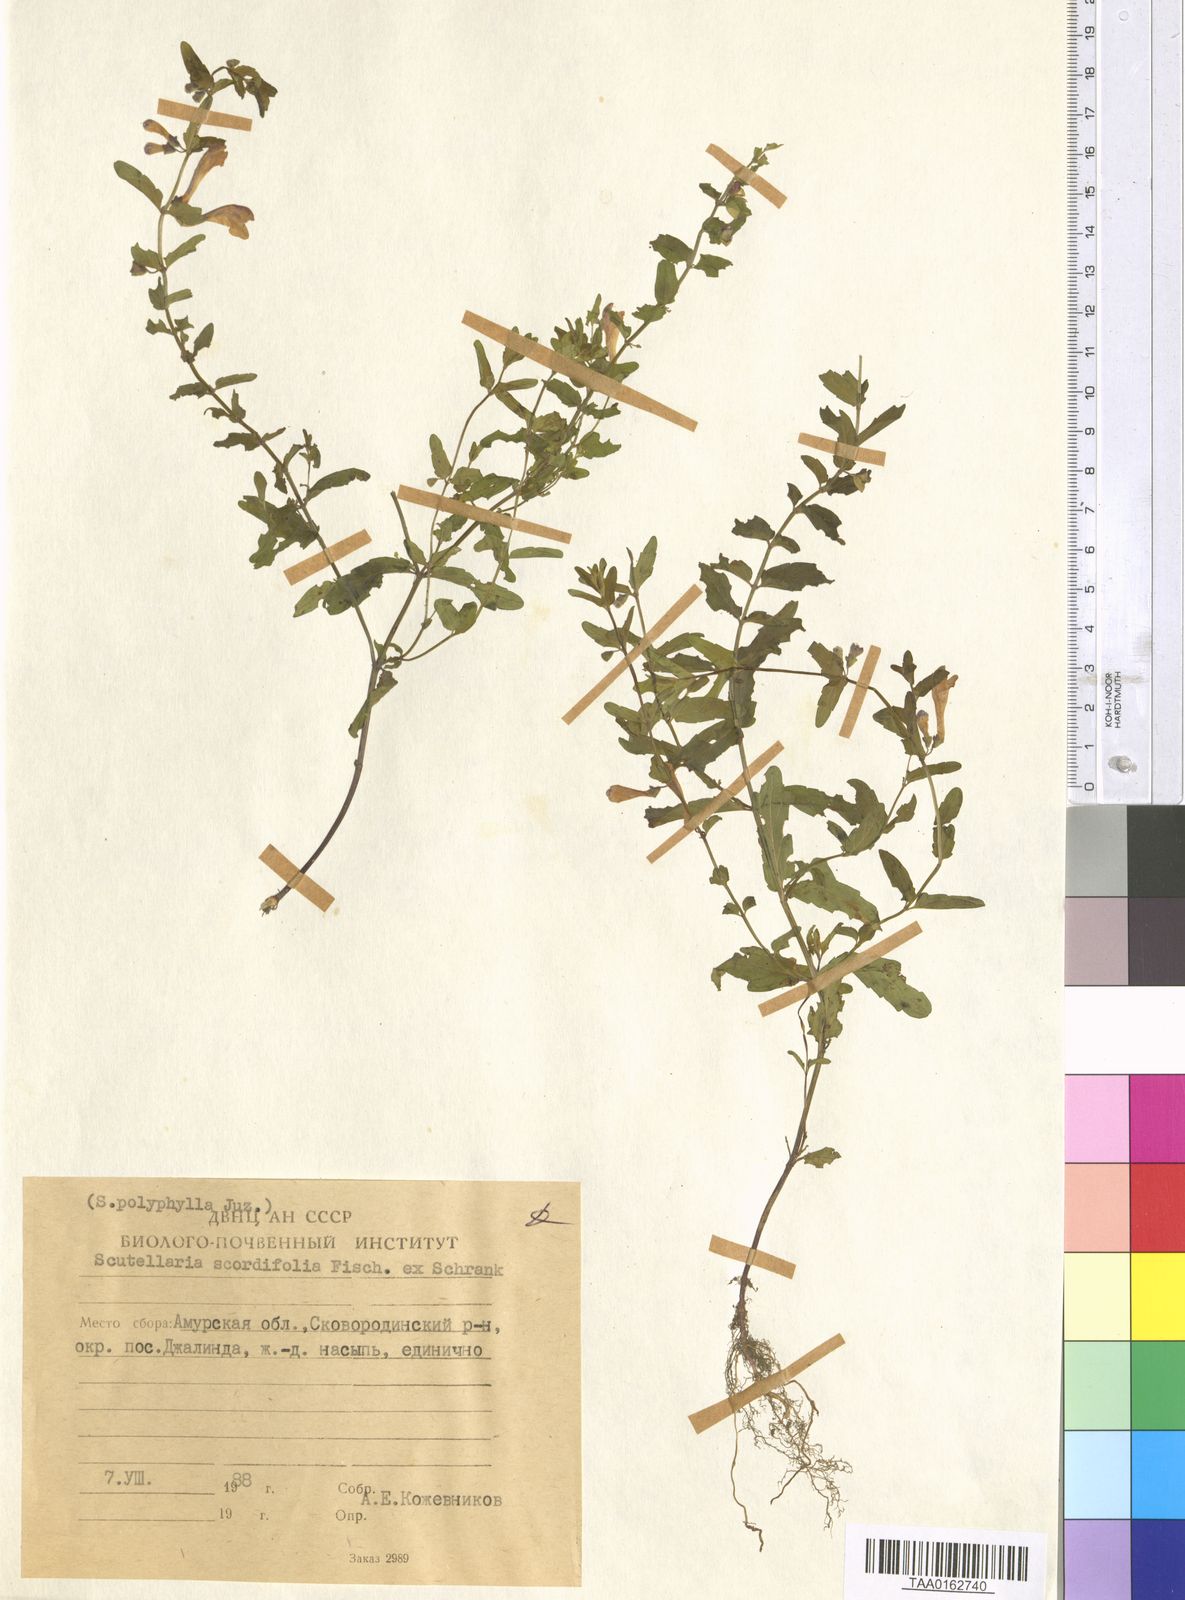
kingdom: Plantae
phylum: Tracheophyta
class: Magnoliopsida
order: Lamiales
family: Lamiaceae
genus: Scutellaria
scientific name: Scutellaria scordiifolia
